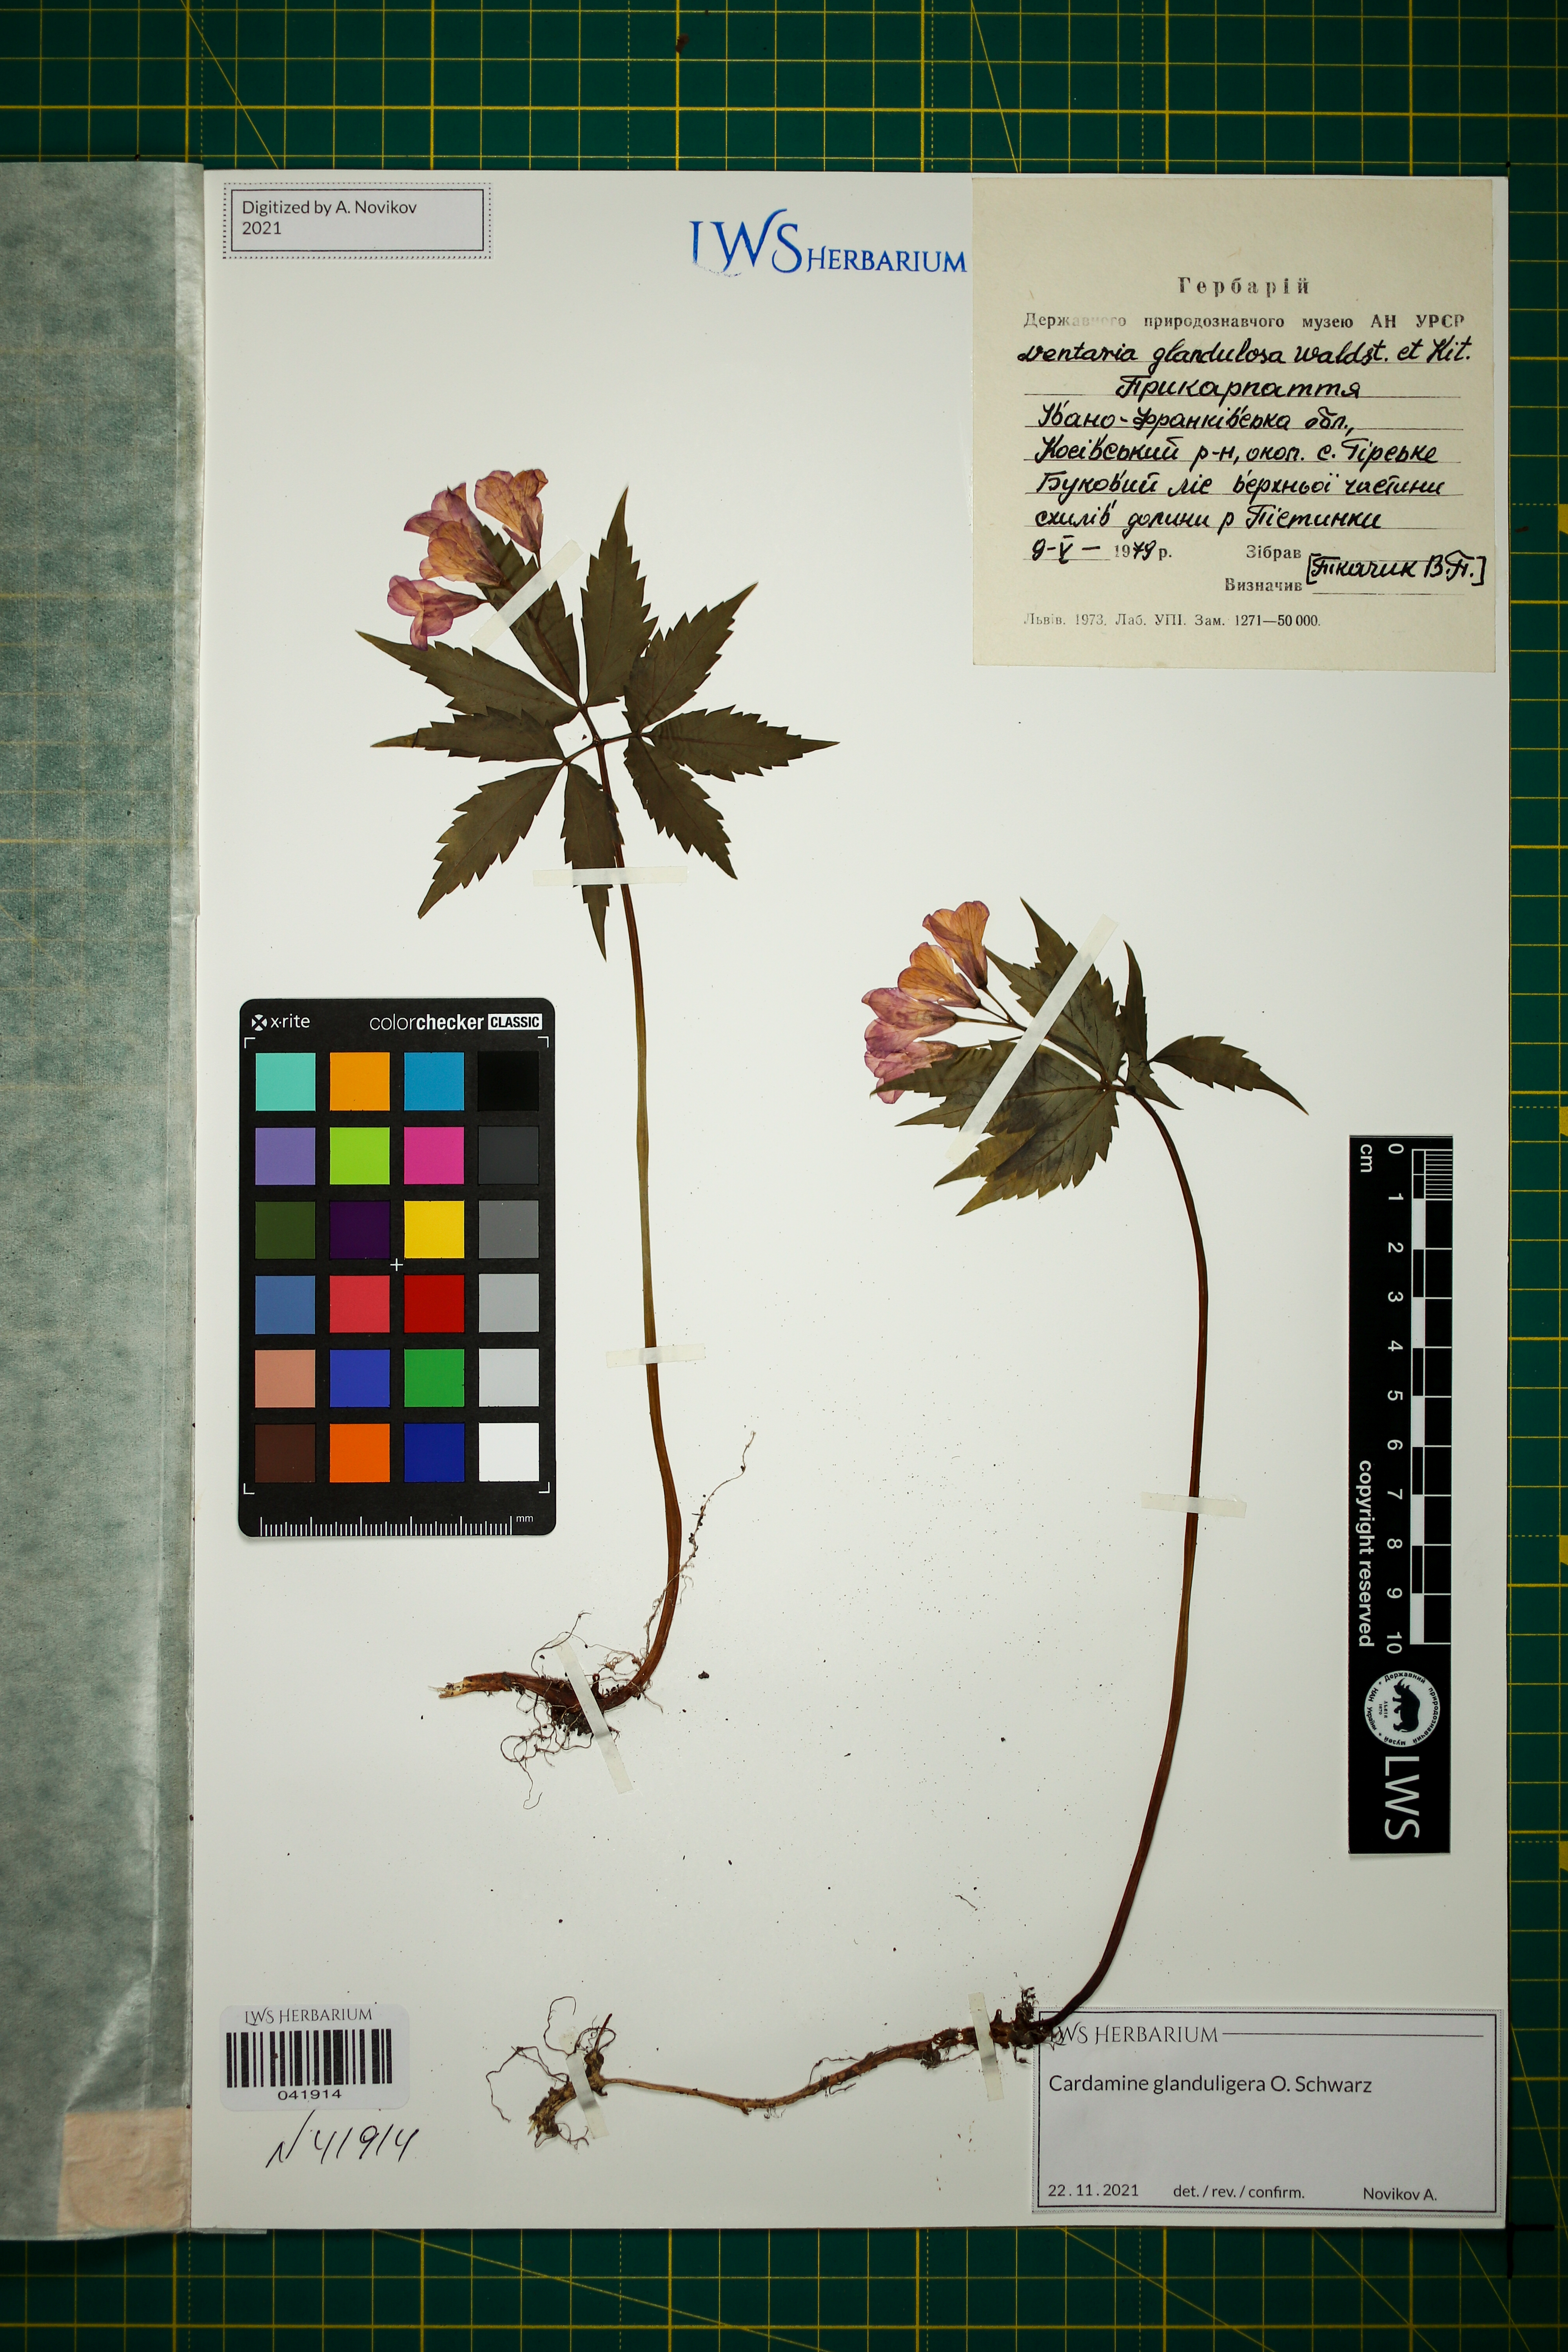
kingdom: Plantae
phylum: Tracheophyta
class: Magnoliopsida
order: Brassicales
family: Brassicaceae
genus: Cardamine
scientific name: Cardamine glanduligera
